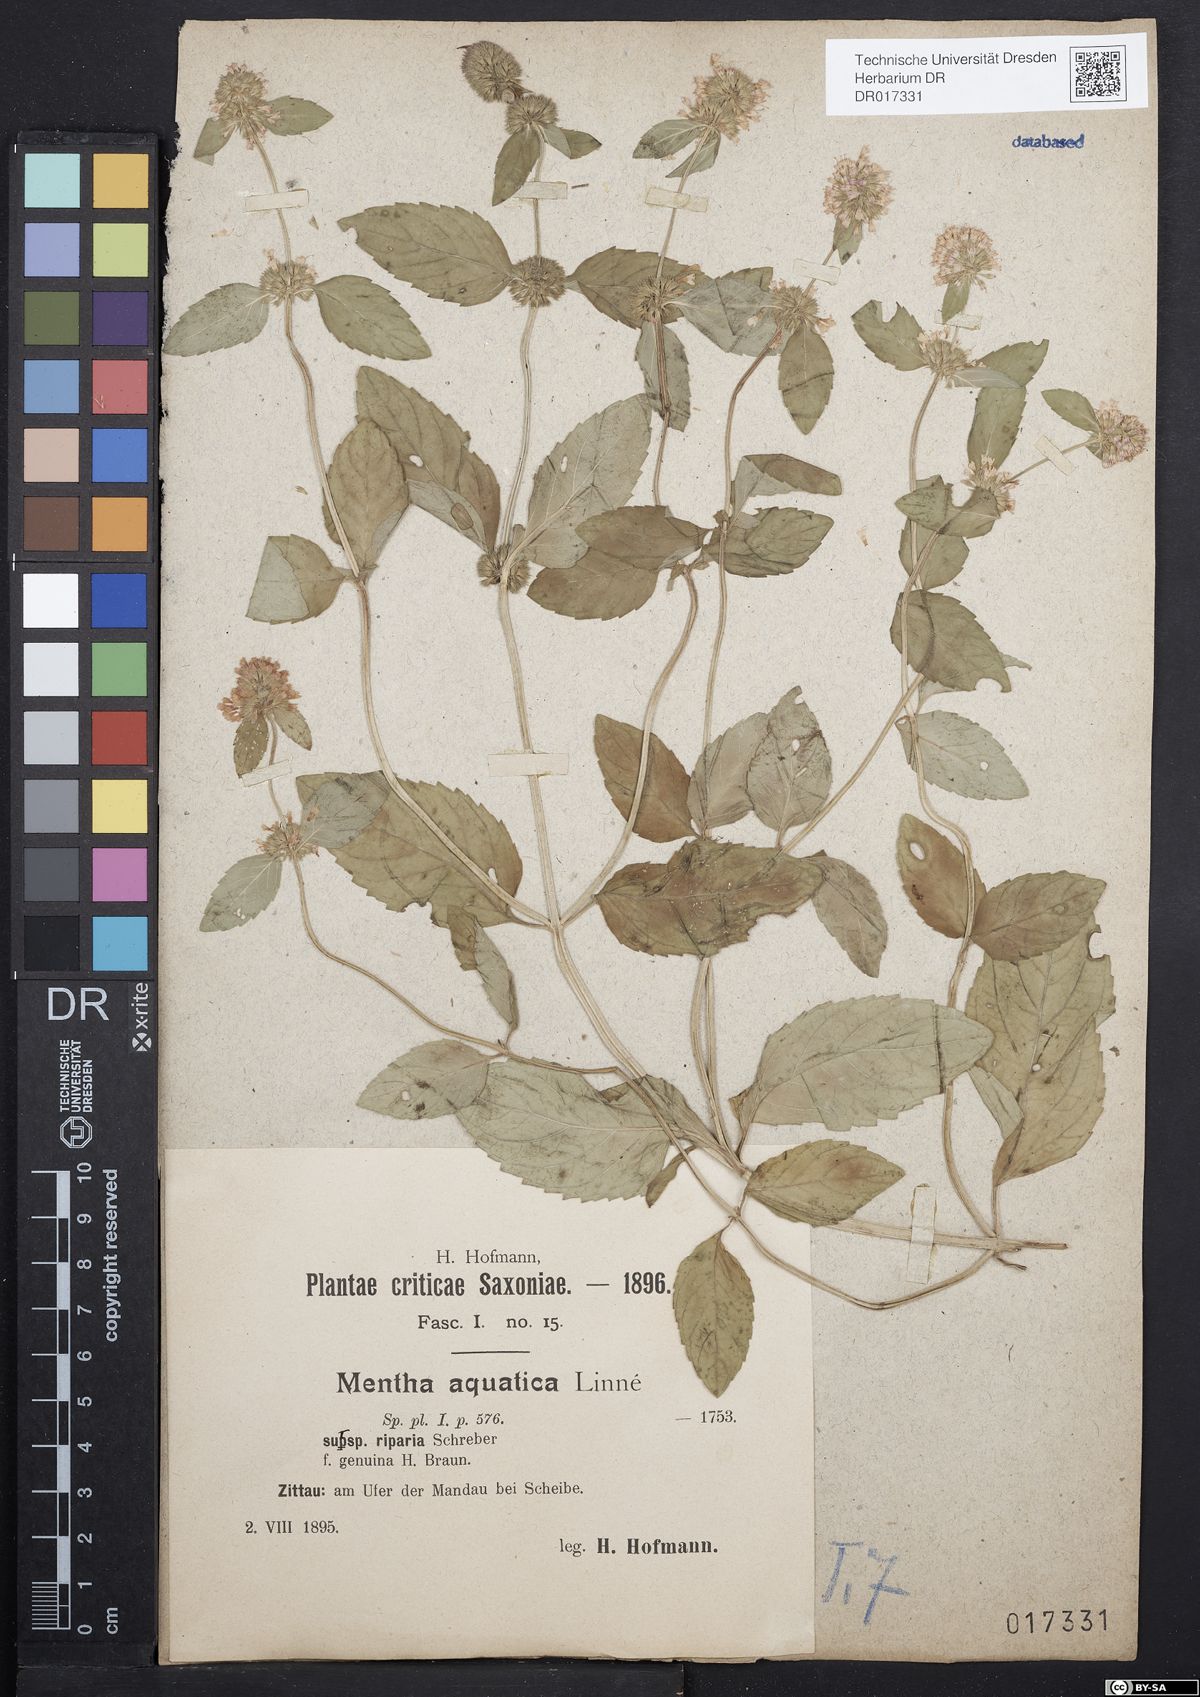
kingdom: Plantae
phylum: Tracheophyta
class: Magnoliopsida
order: Lamiales
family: Lamiaceae
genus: Mentha
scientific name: Mentha aquatica
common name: Water mint
